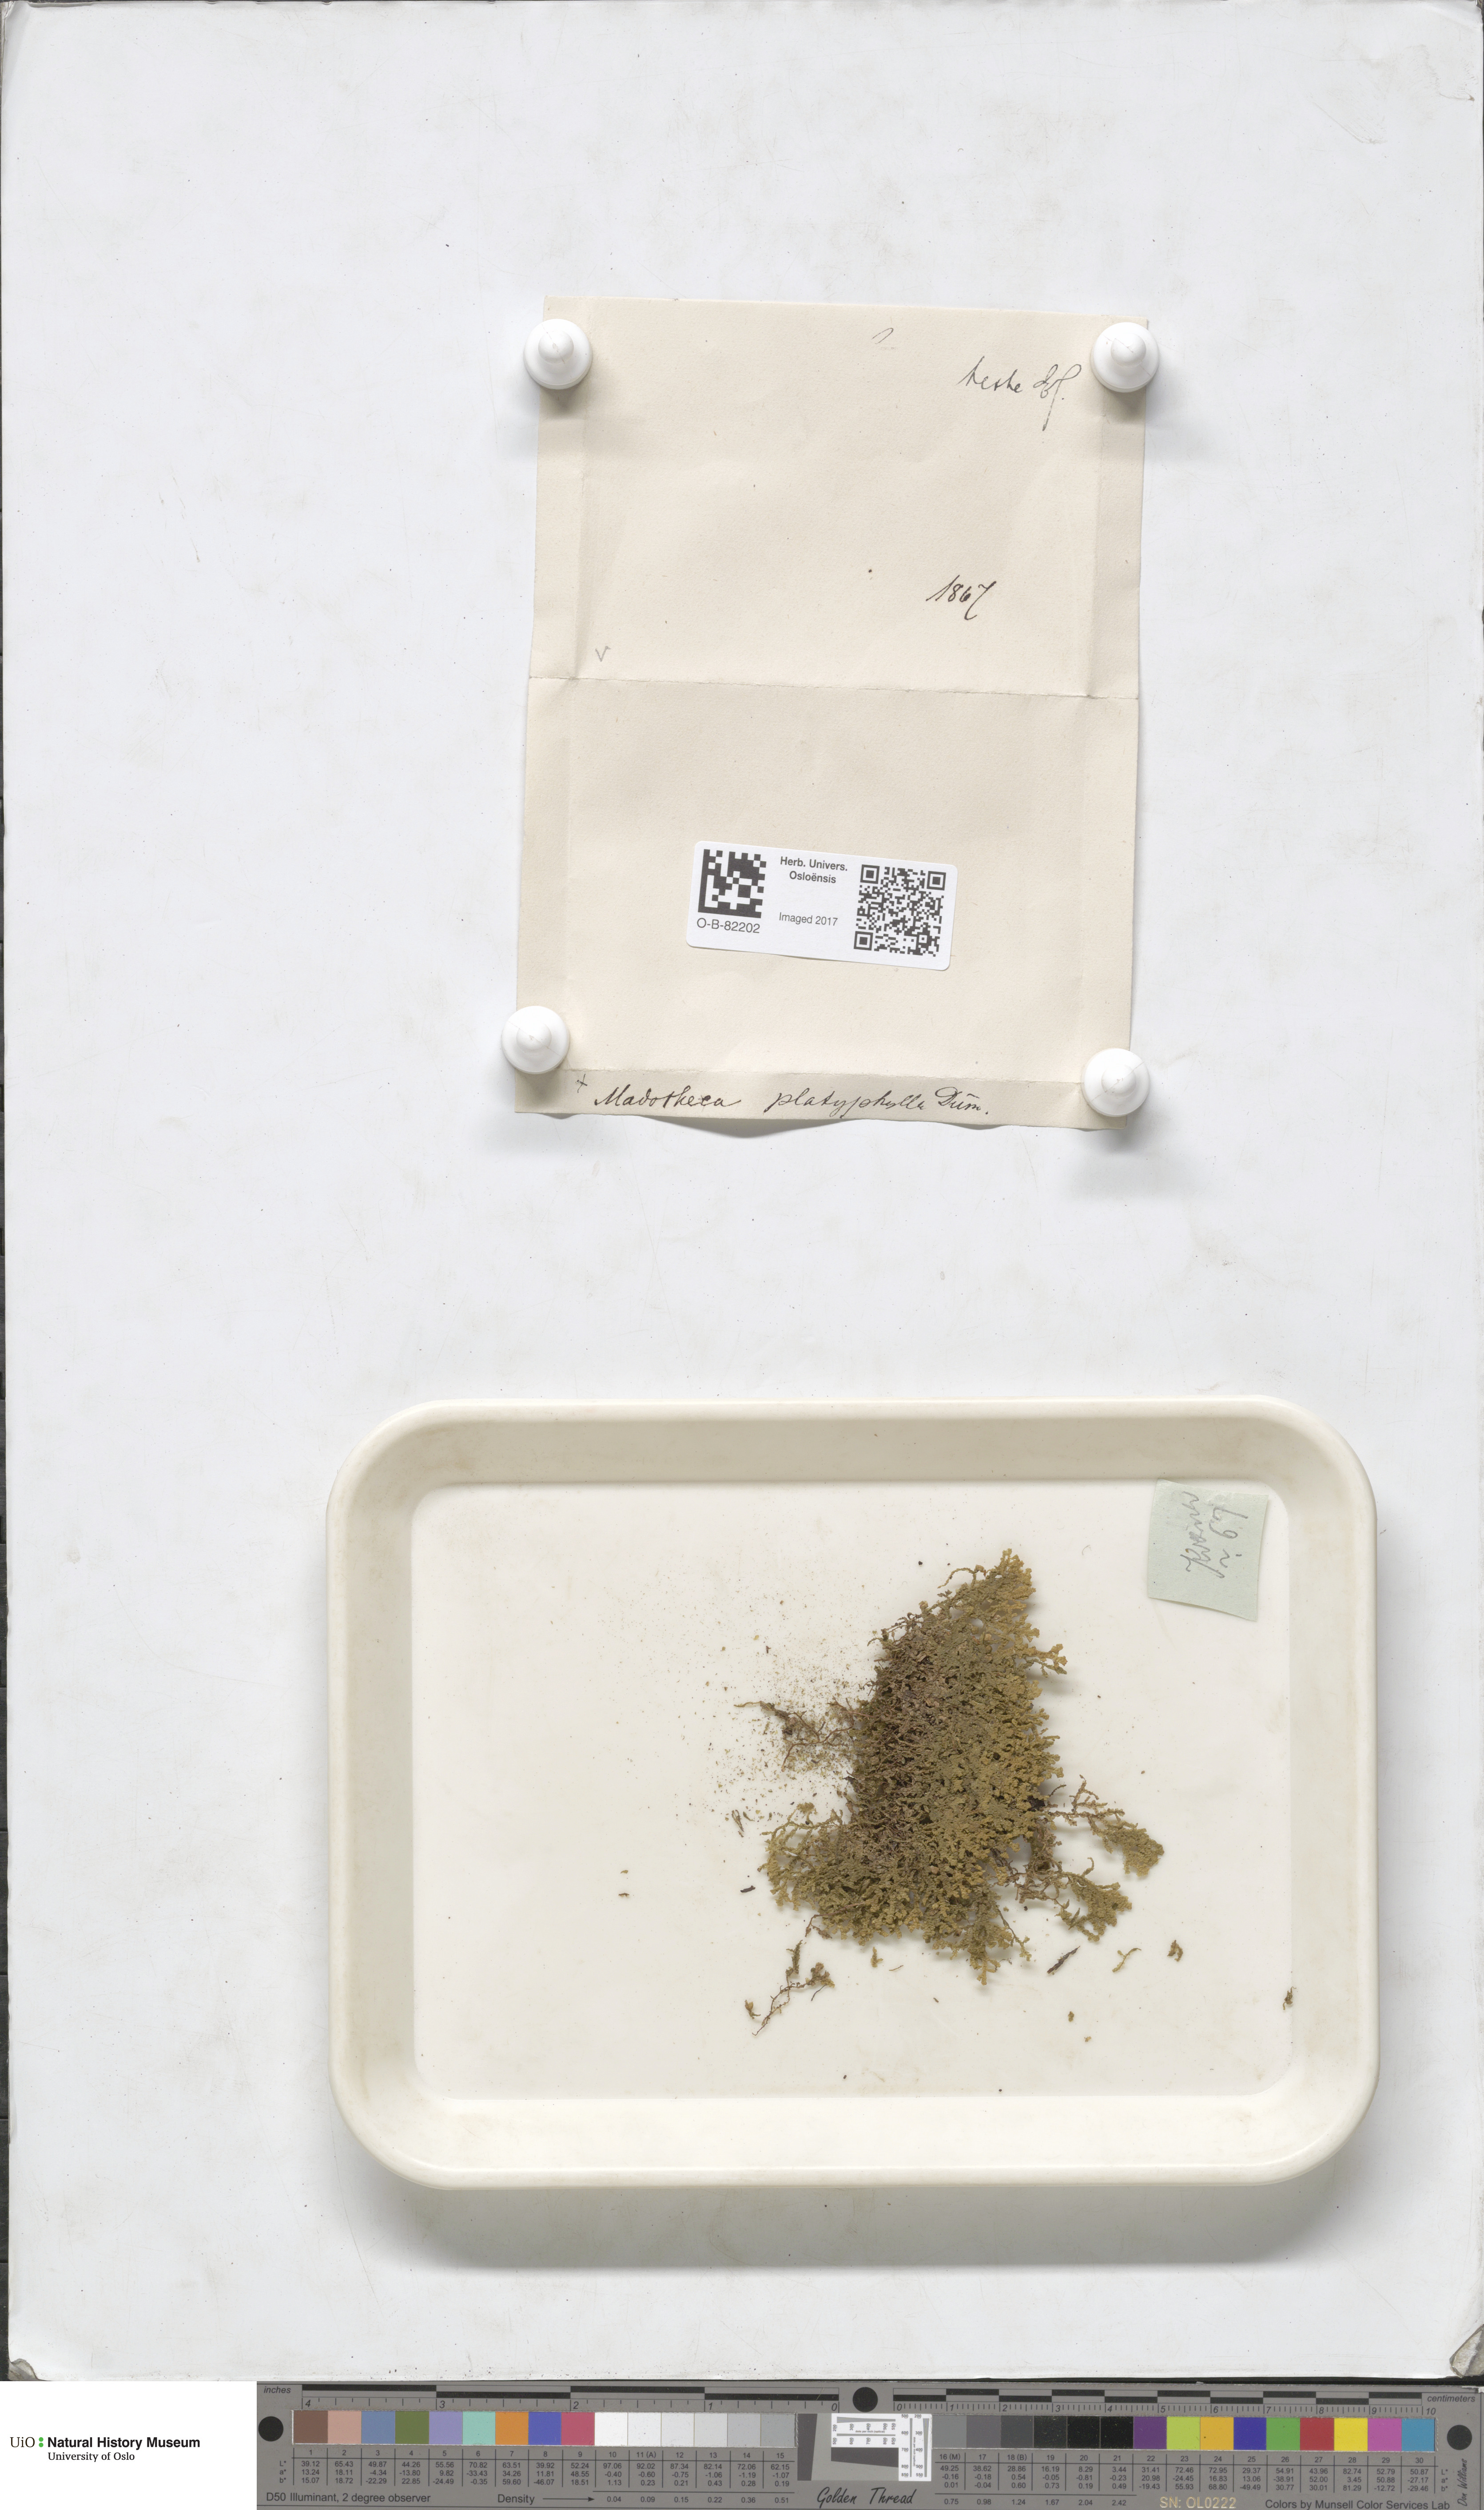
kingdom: Plantae
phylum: Marchantiophyta
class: Jungermanniopsida
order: Porellales
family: Porellaceae
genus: Porella
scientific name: Porella platyphylla
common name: Wall scalewort
